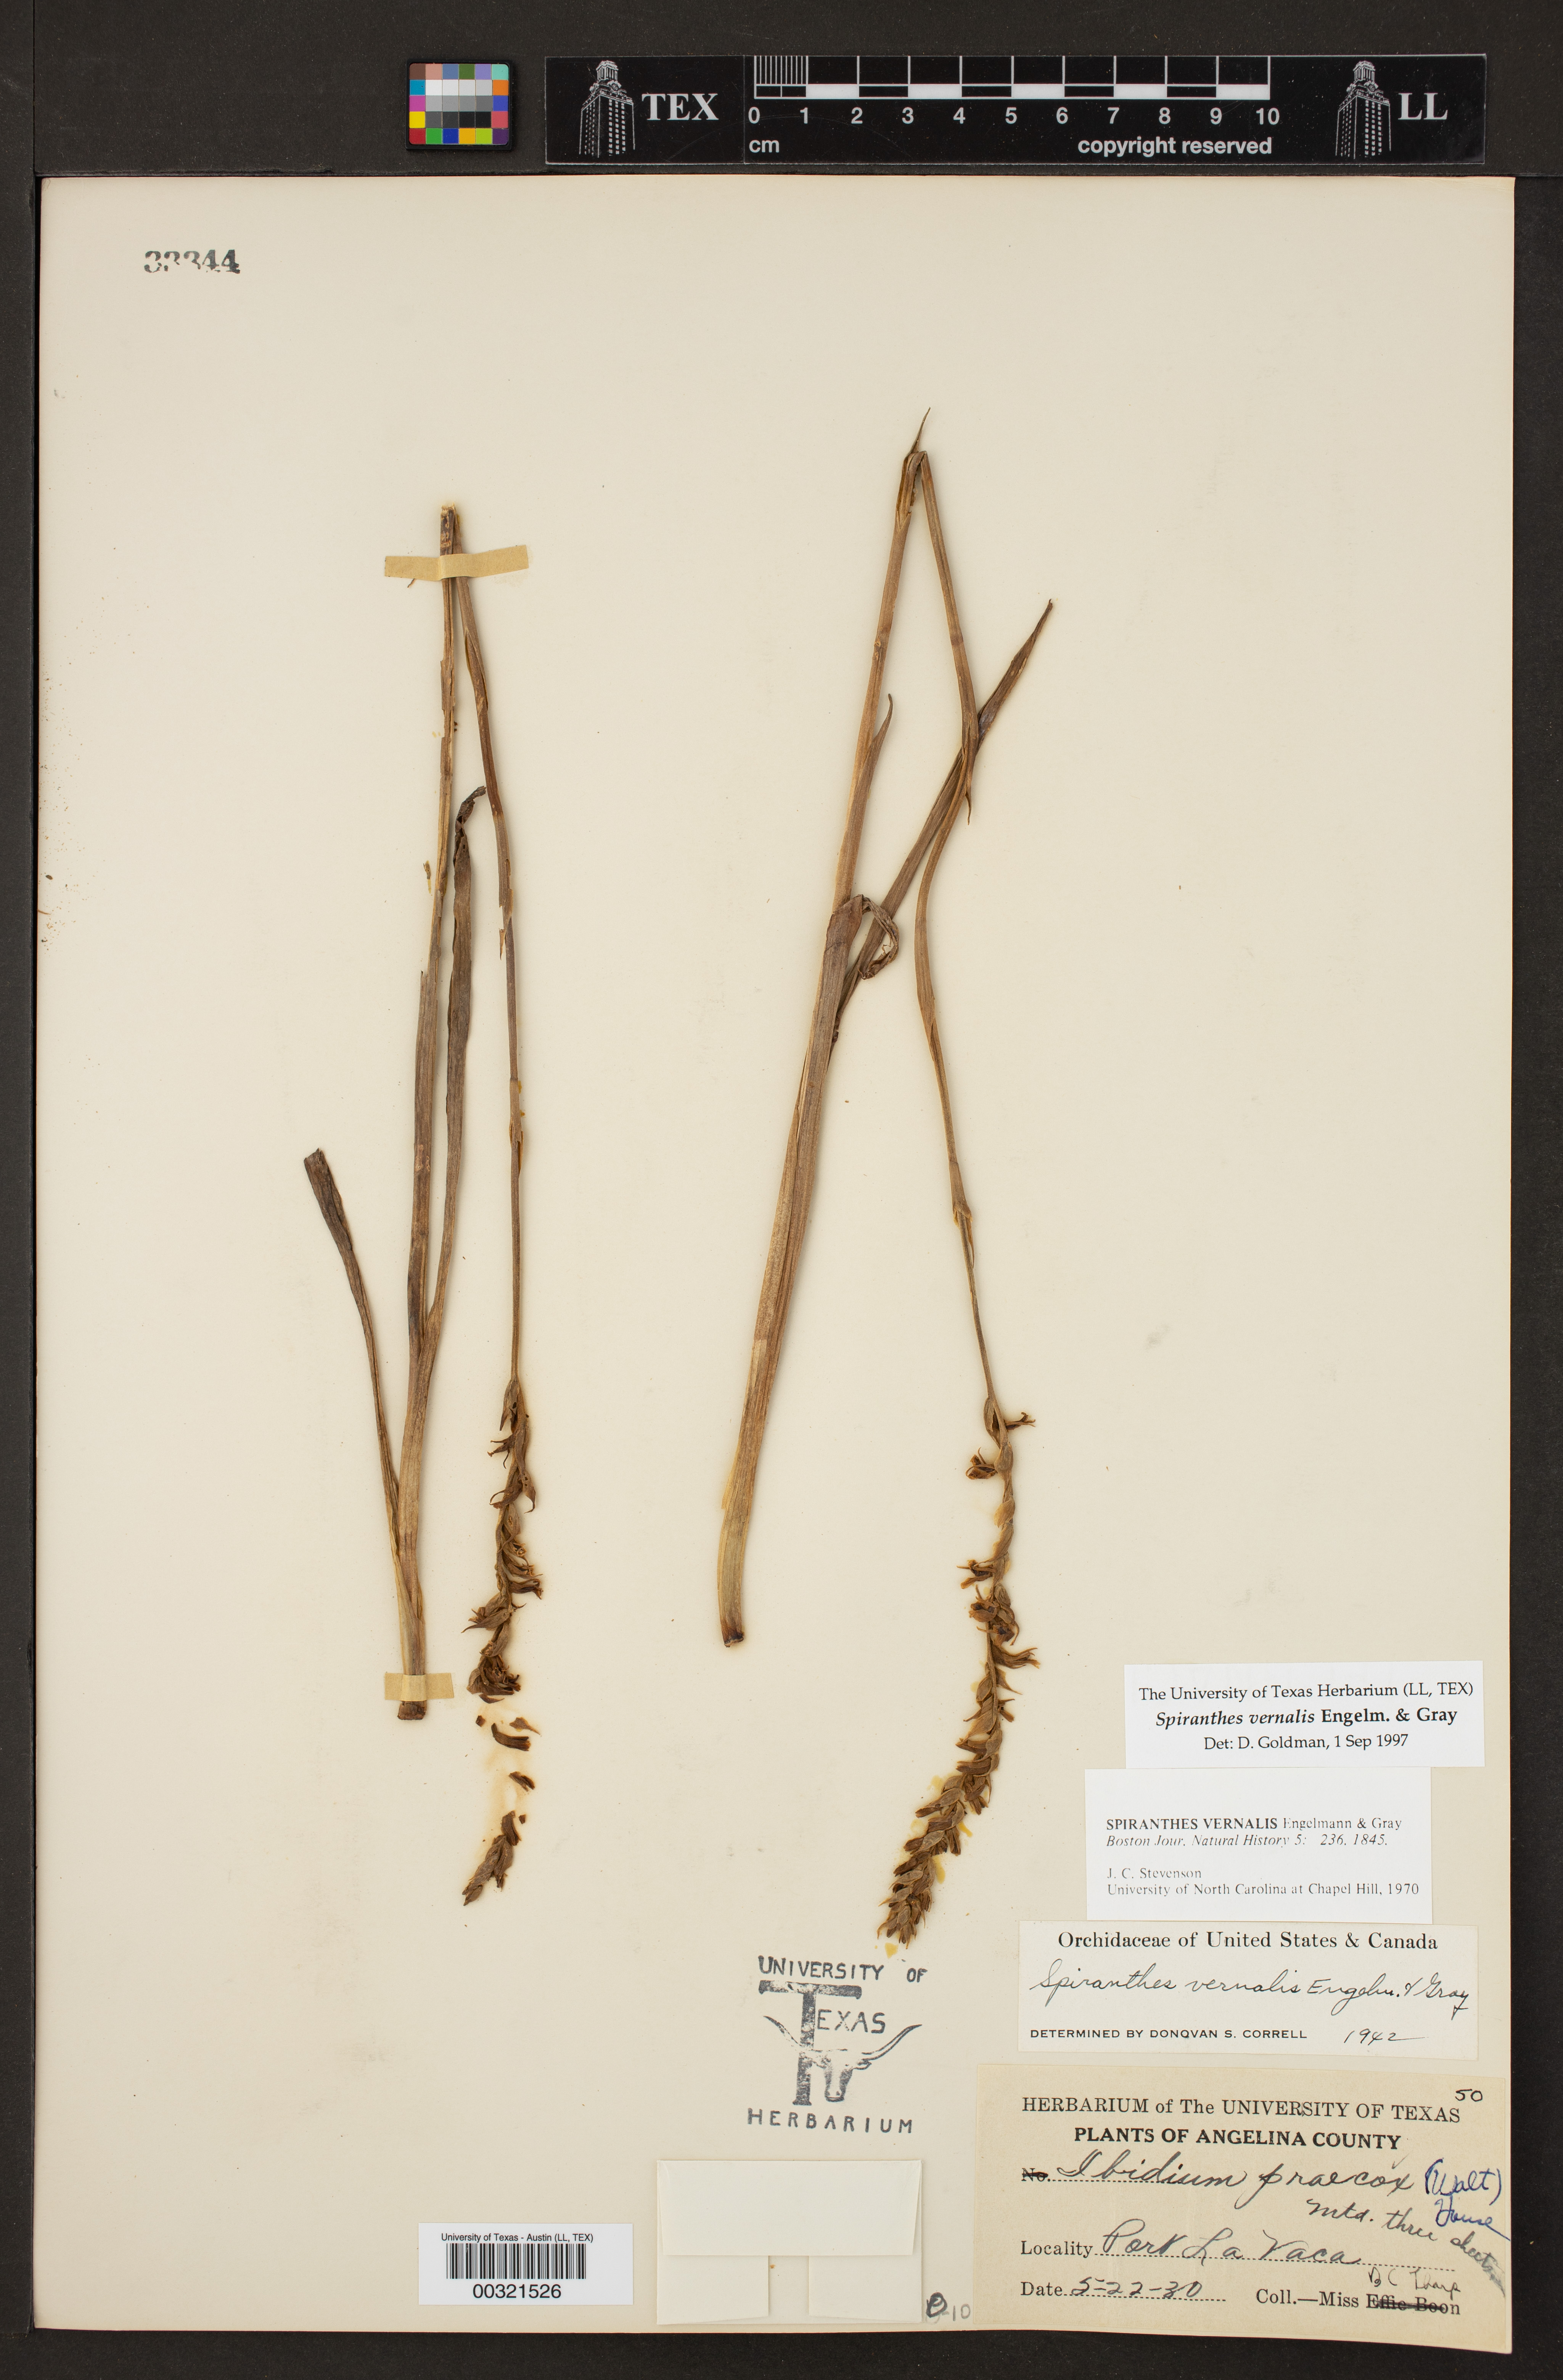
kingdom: Plantae
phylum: Tracheophyta
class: Liliopsida
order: Asparagales
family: Orchidaceae
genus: Spiranthes
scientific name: Spiranthes vernalis
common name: Spring ladies'-tresses
